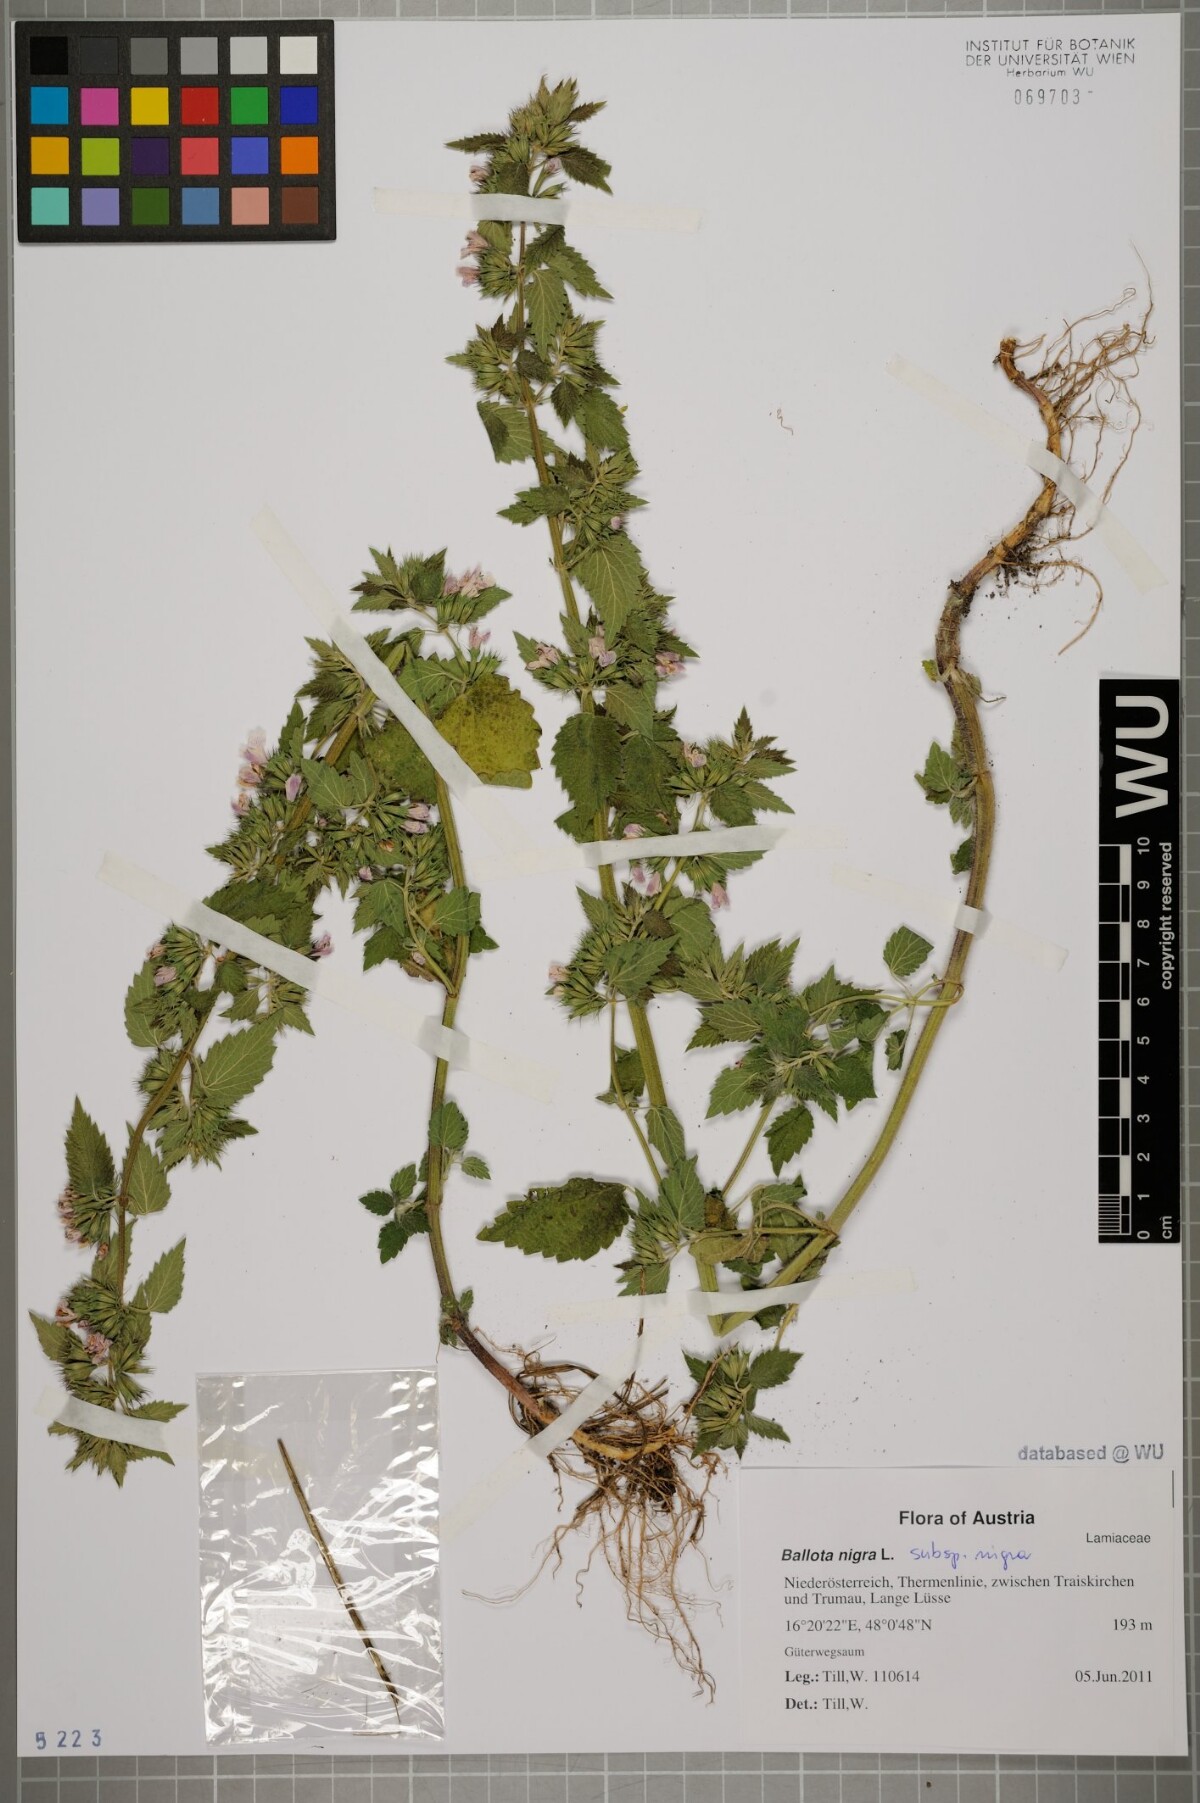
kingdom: Plantae
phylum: Tracheophyta
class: Magnoliopsida
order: Lamiales
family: Lamiaceae
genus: Ballota
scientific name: Ballota nigra
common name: Black horehound
